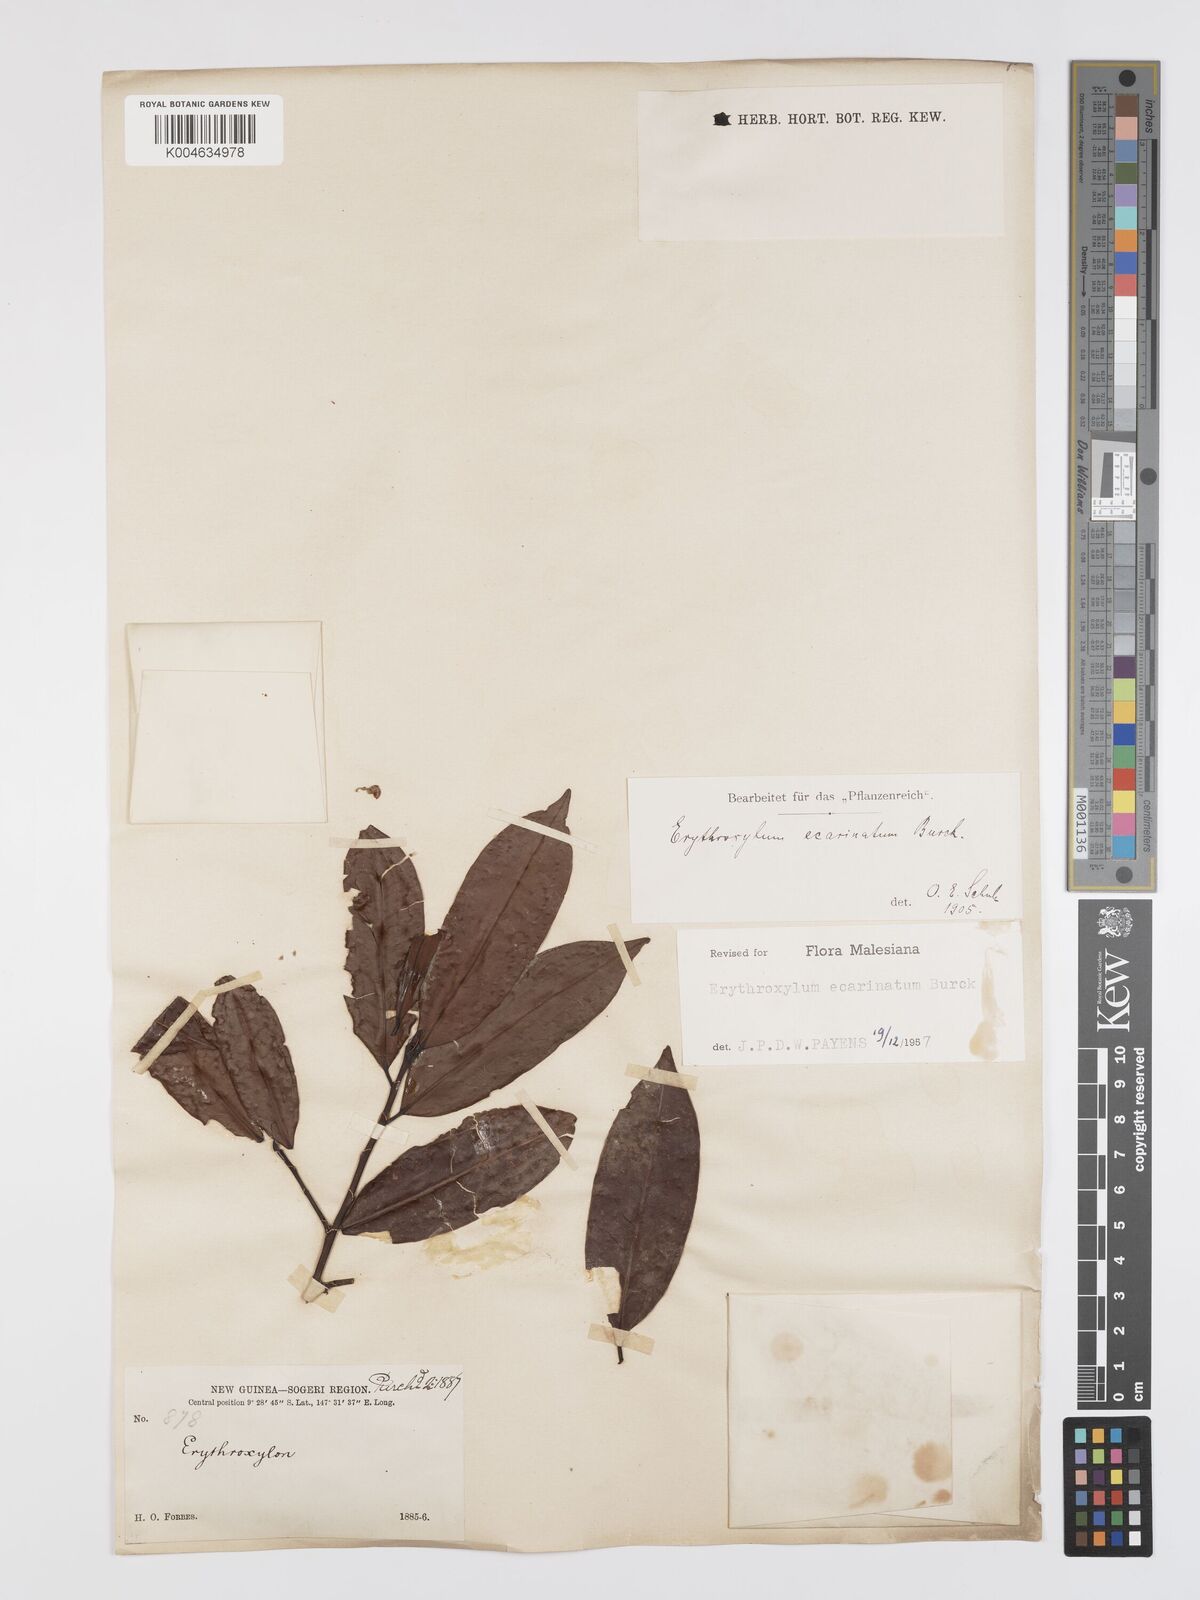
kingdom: Plantae
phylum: Tracheophyta
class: Magnoliopsida
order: Malpighiales
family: Erythroxylaceae
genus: Erythroxylum
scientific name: Erythroxylum ecarinatum
